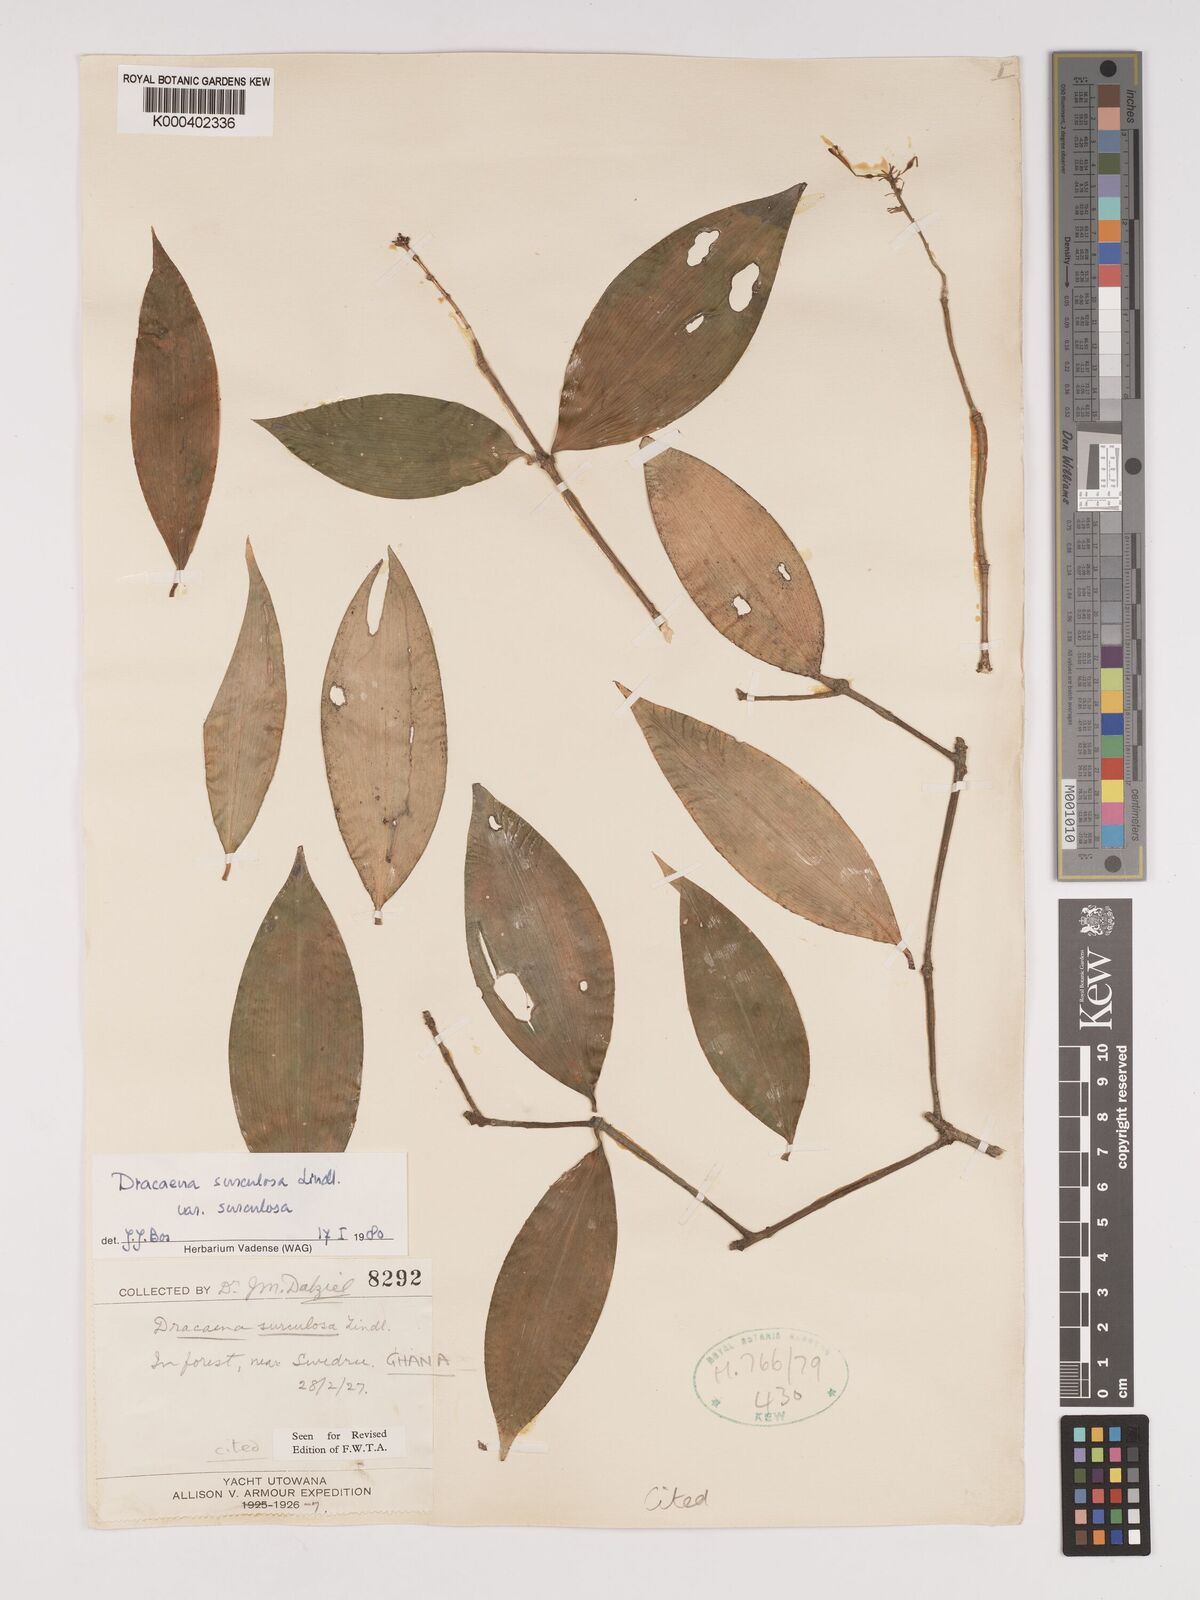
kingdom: Plantae
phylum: Tracheophyta
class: Liliopsida
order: Asparagales
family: Asparagaceae
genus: Dracaena
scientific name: Dracaena surculosa
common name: Spotted dracaena
